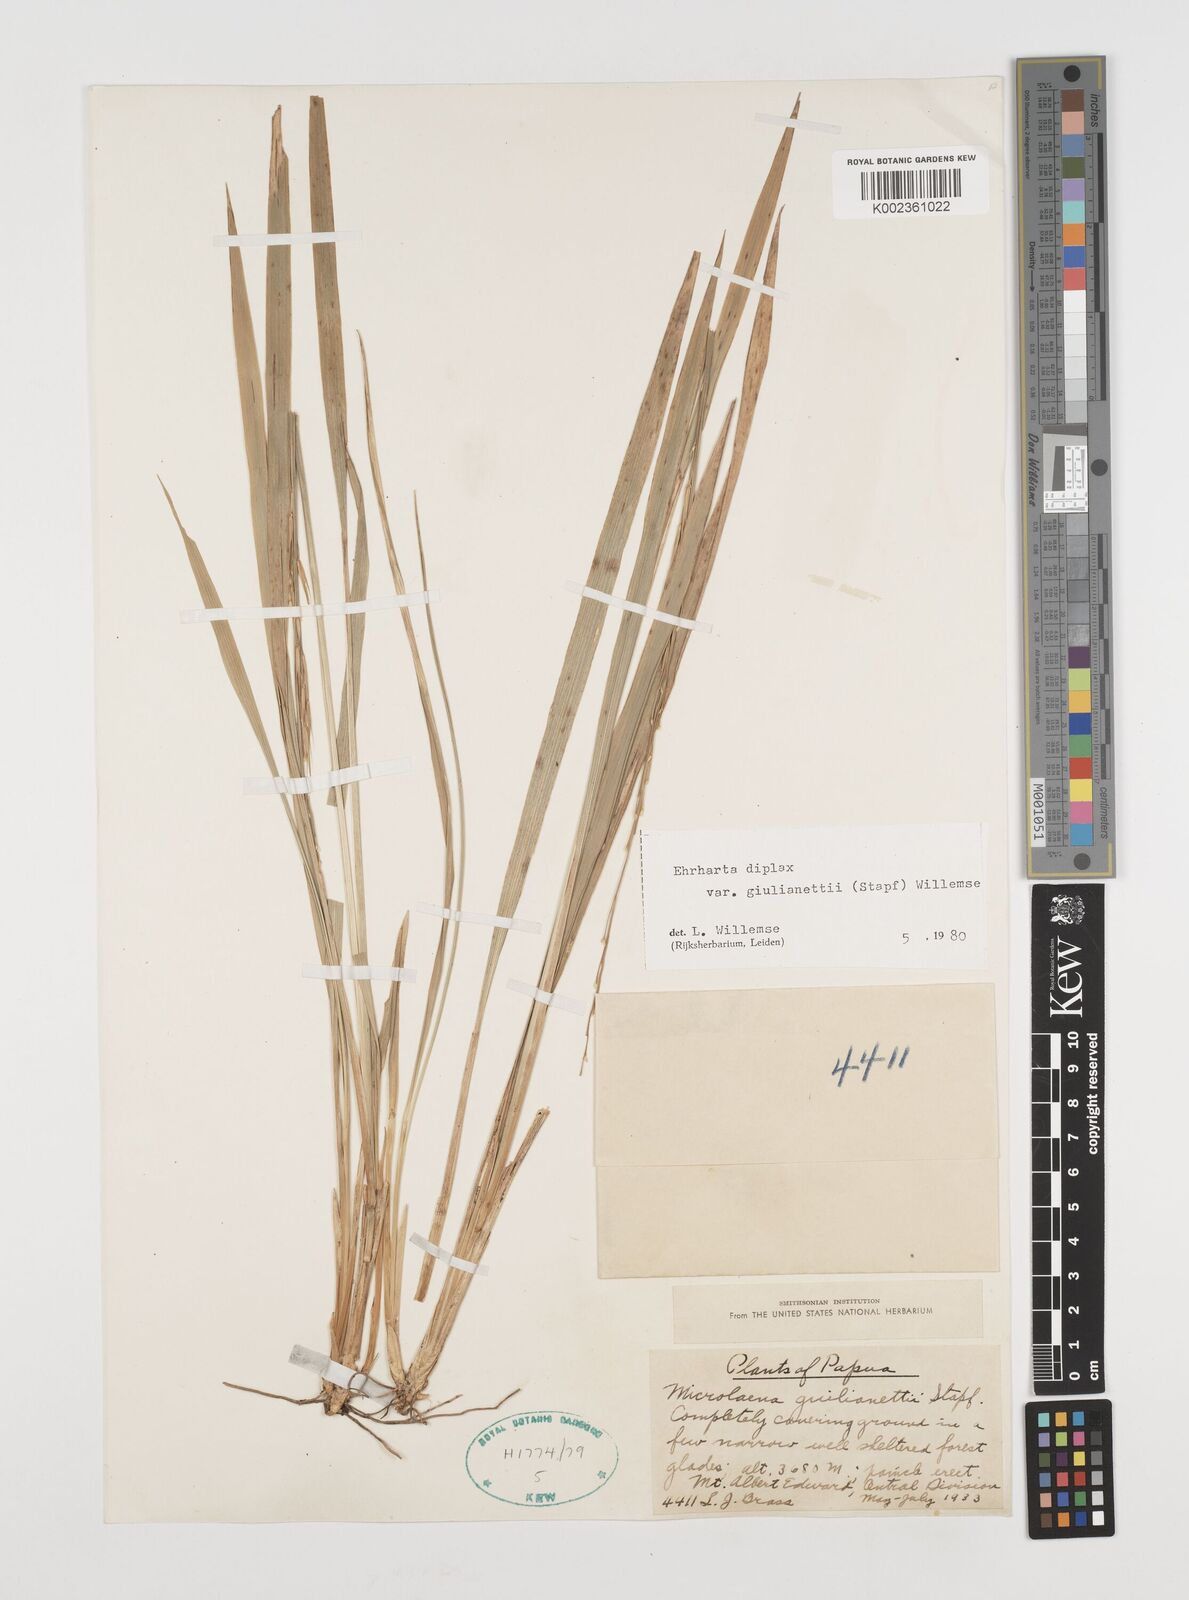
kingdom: Plantae
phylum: Tracheophyta
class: Liliopsida
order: Poales
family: Poaceae
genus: Ehrharta
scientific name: Ehrharta diplax
